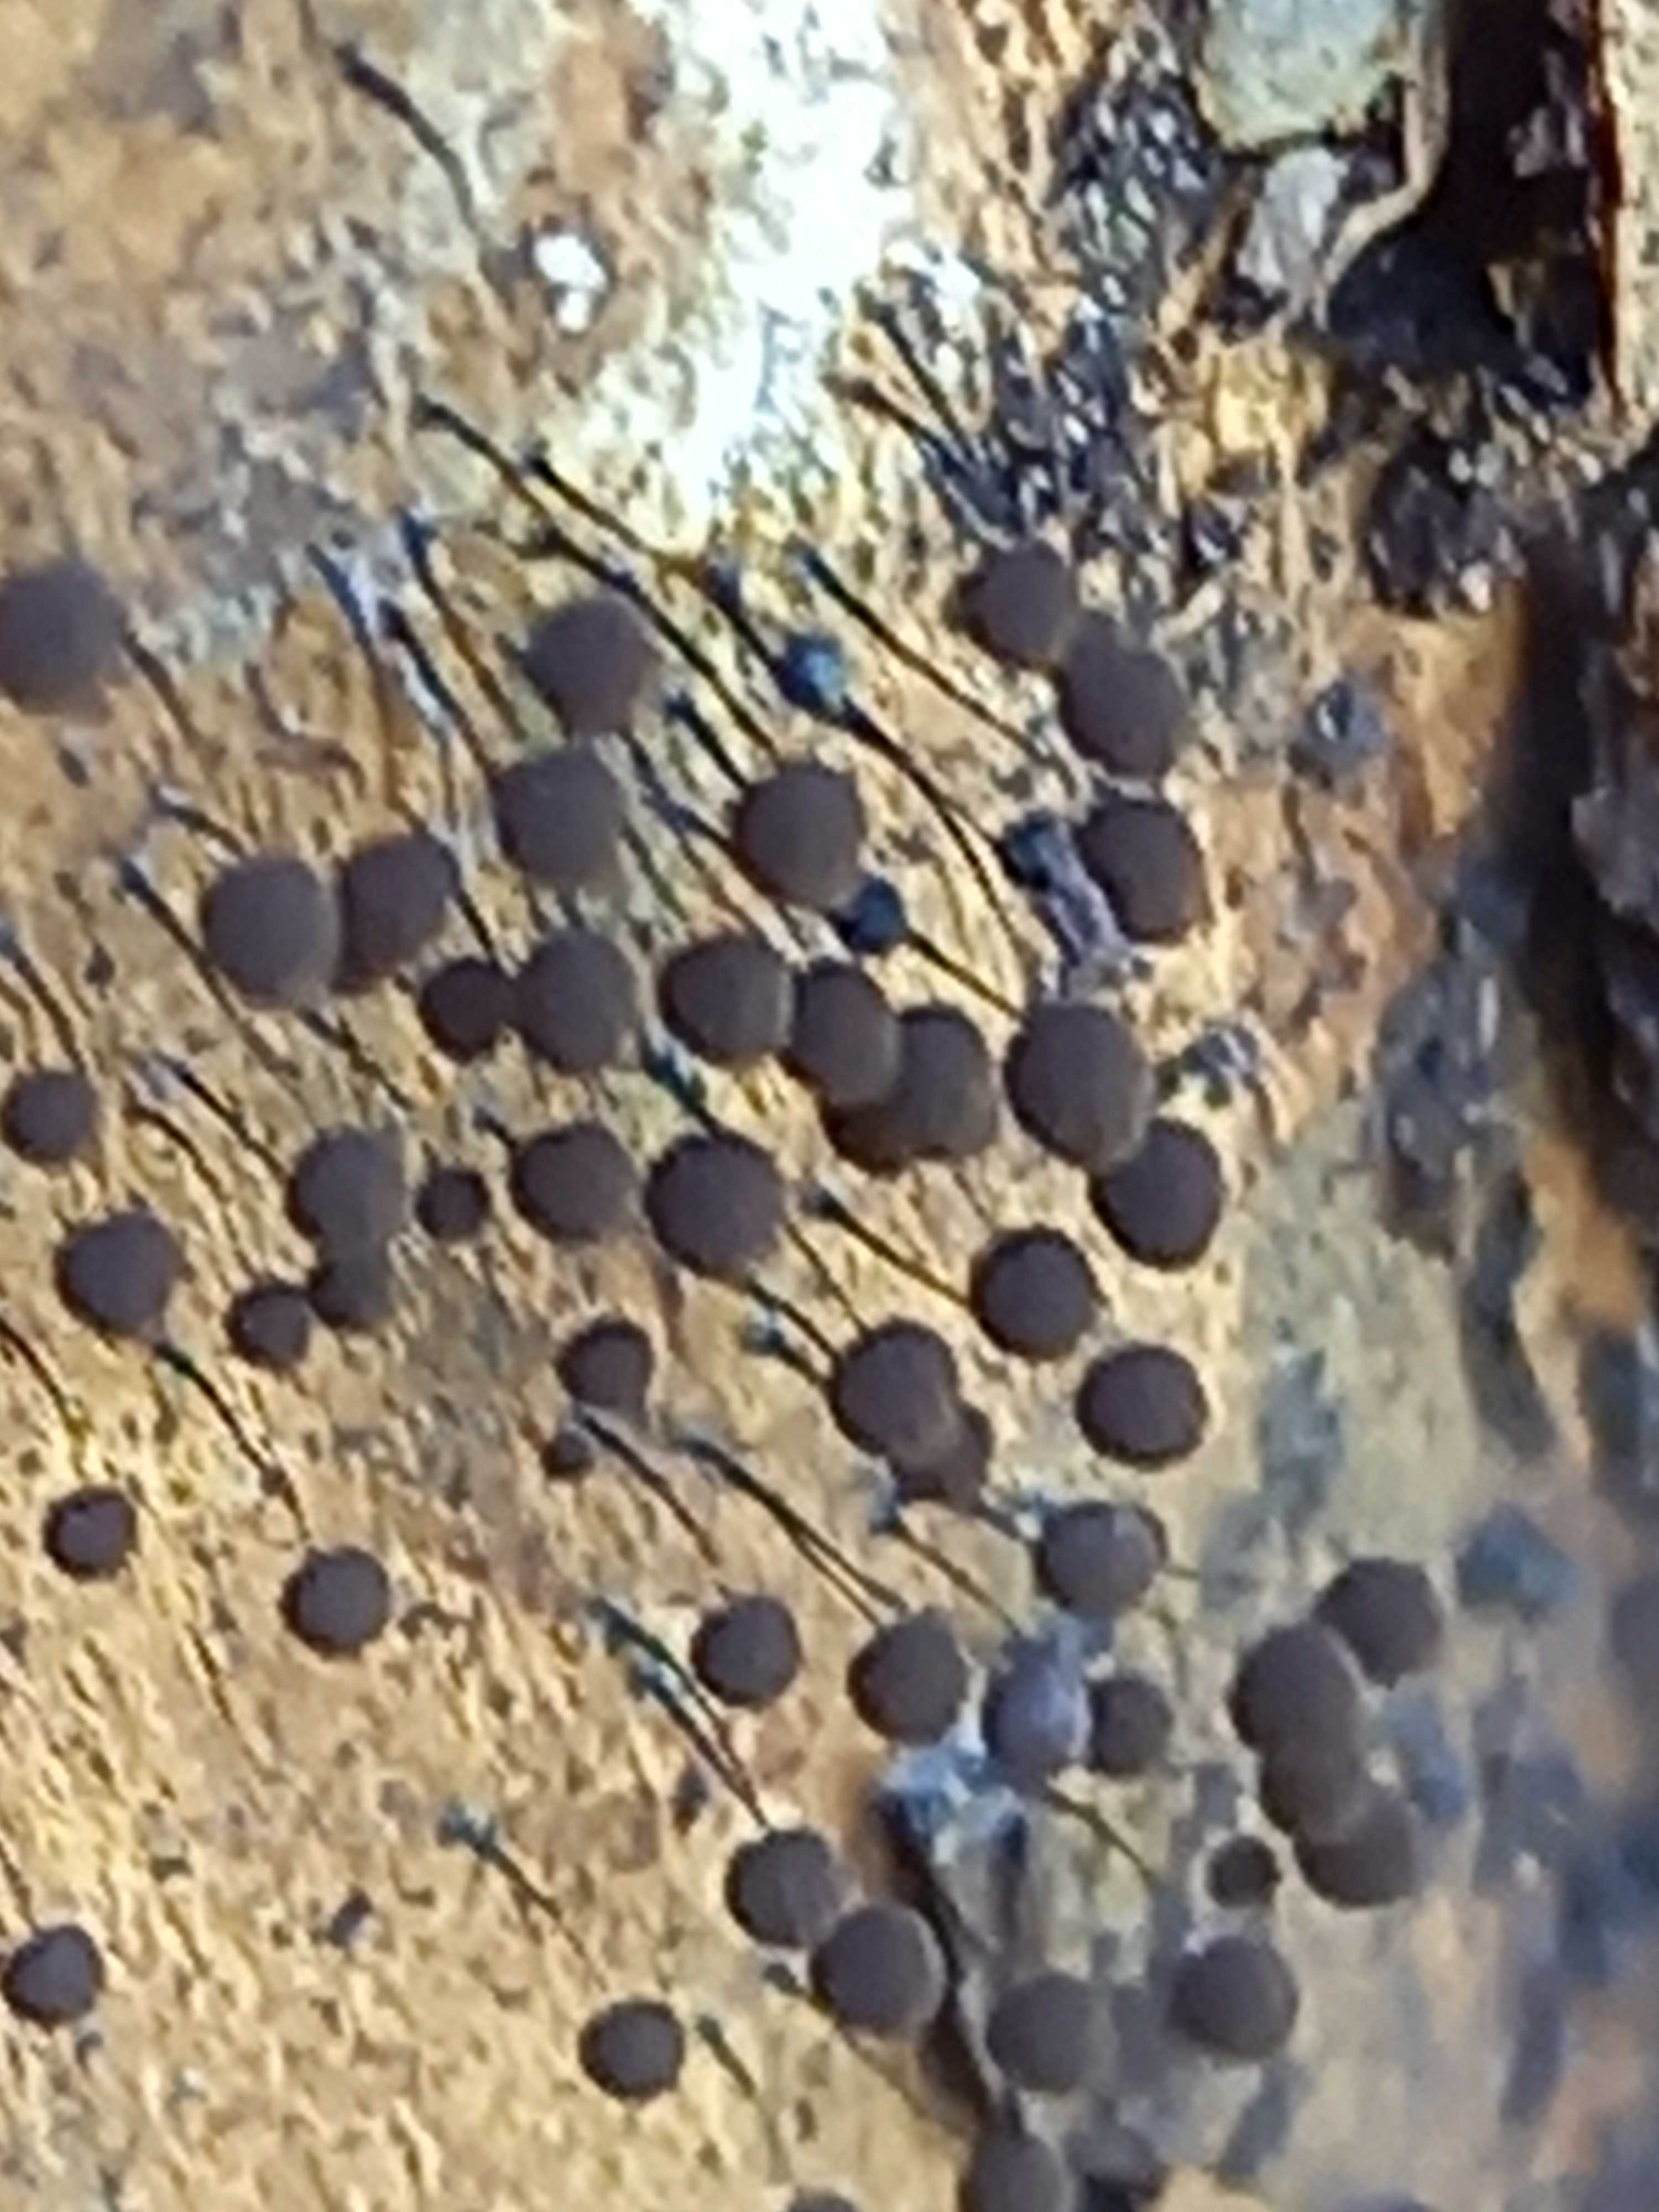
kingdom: Protozoa
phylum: Mycetozoa
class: Myxomycetes
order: Stemonitidales
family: Stemonitidaceae
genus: Comatricha
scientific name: Comatricha nigra
